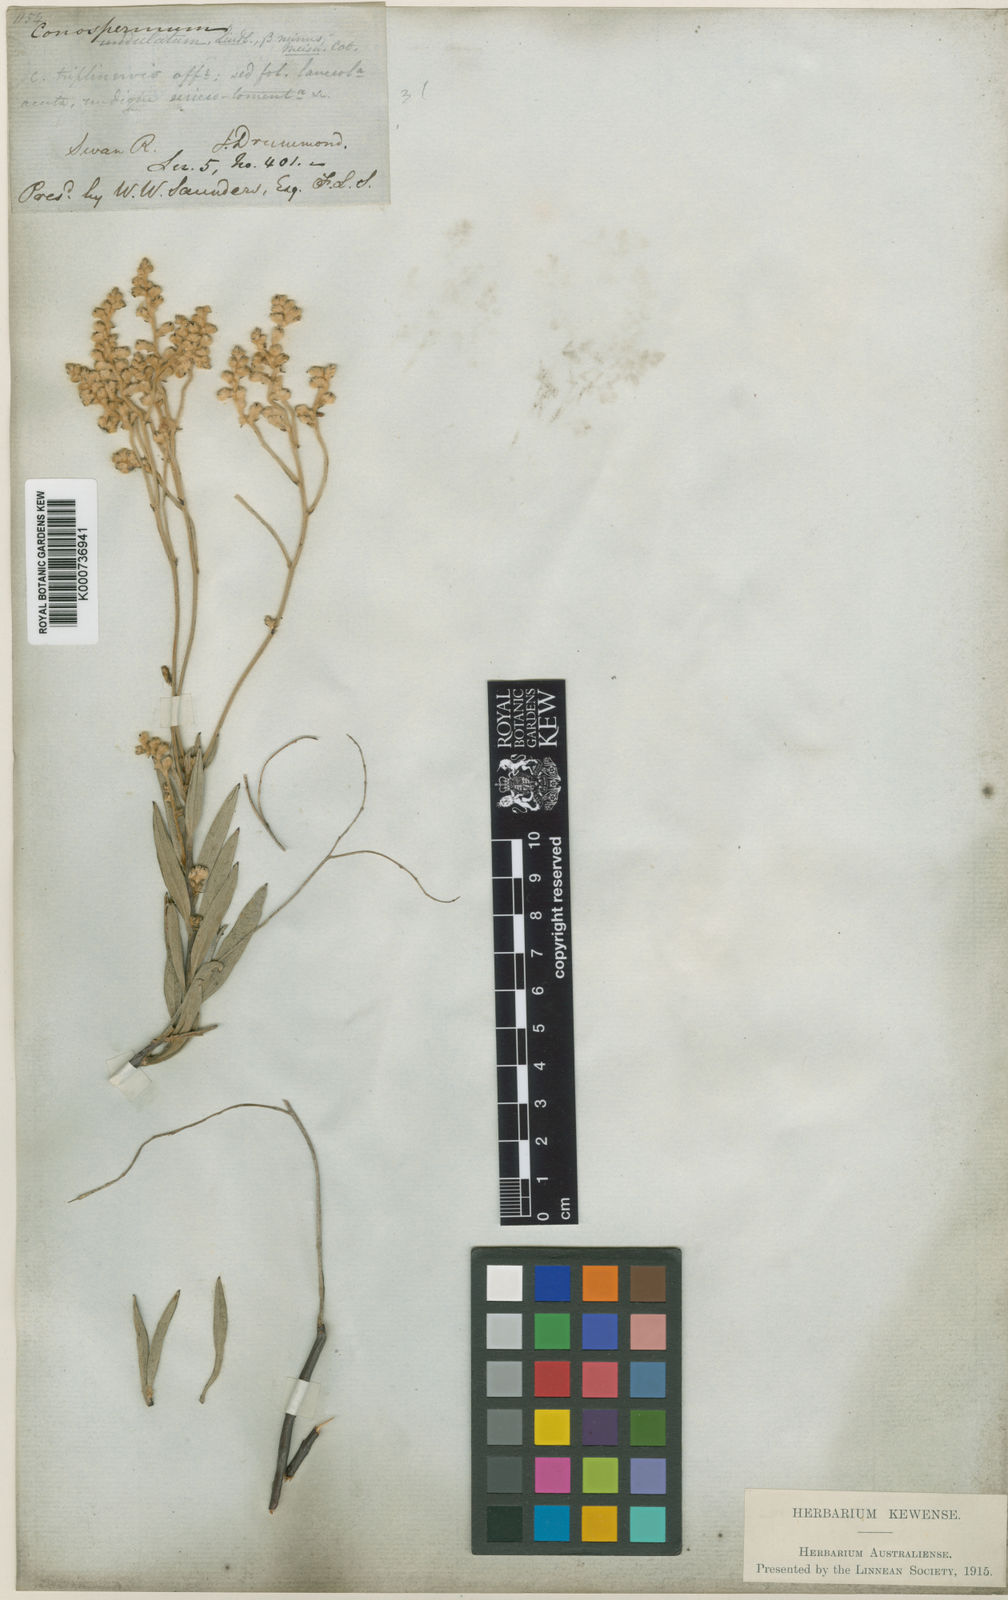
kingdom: Plantae
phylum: Tracheophyta
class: Magnoliopsida
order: Proteales
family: Proteaceae
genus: Conospermum
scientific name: Conospermum triplinervium
